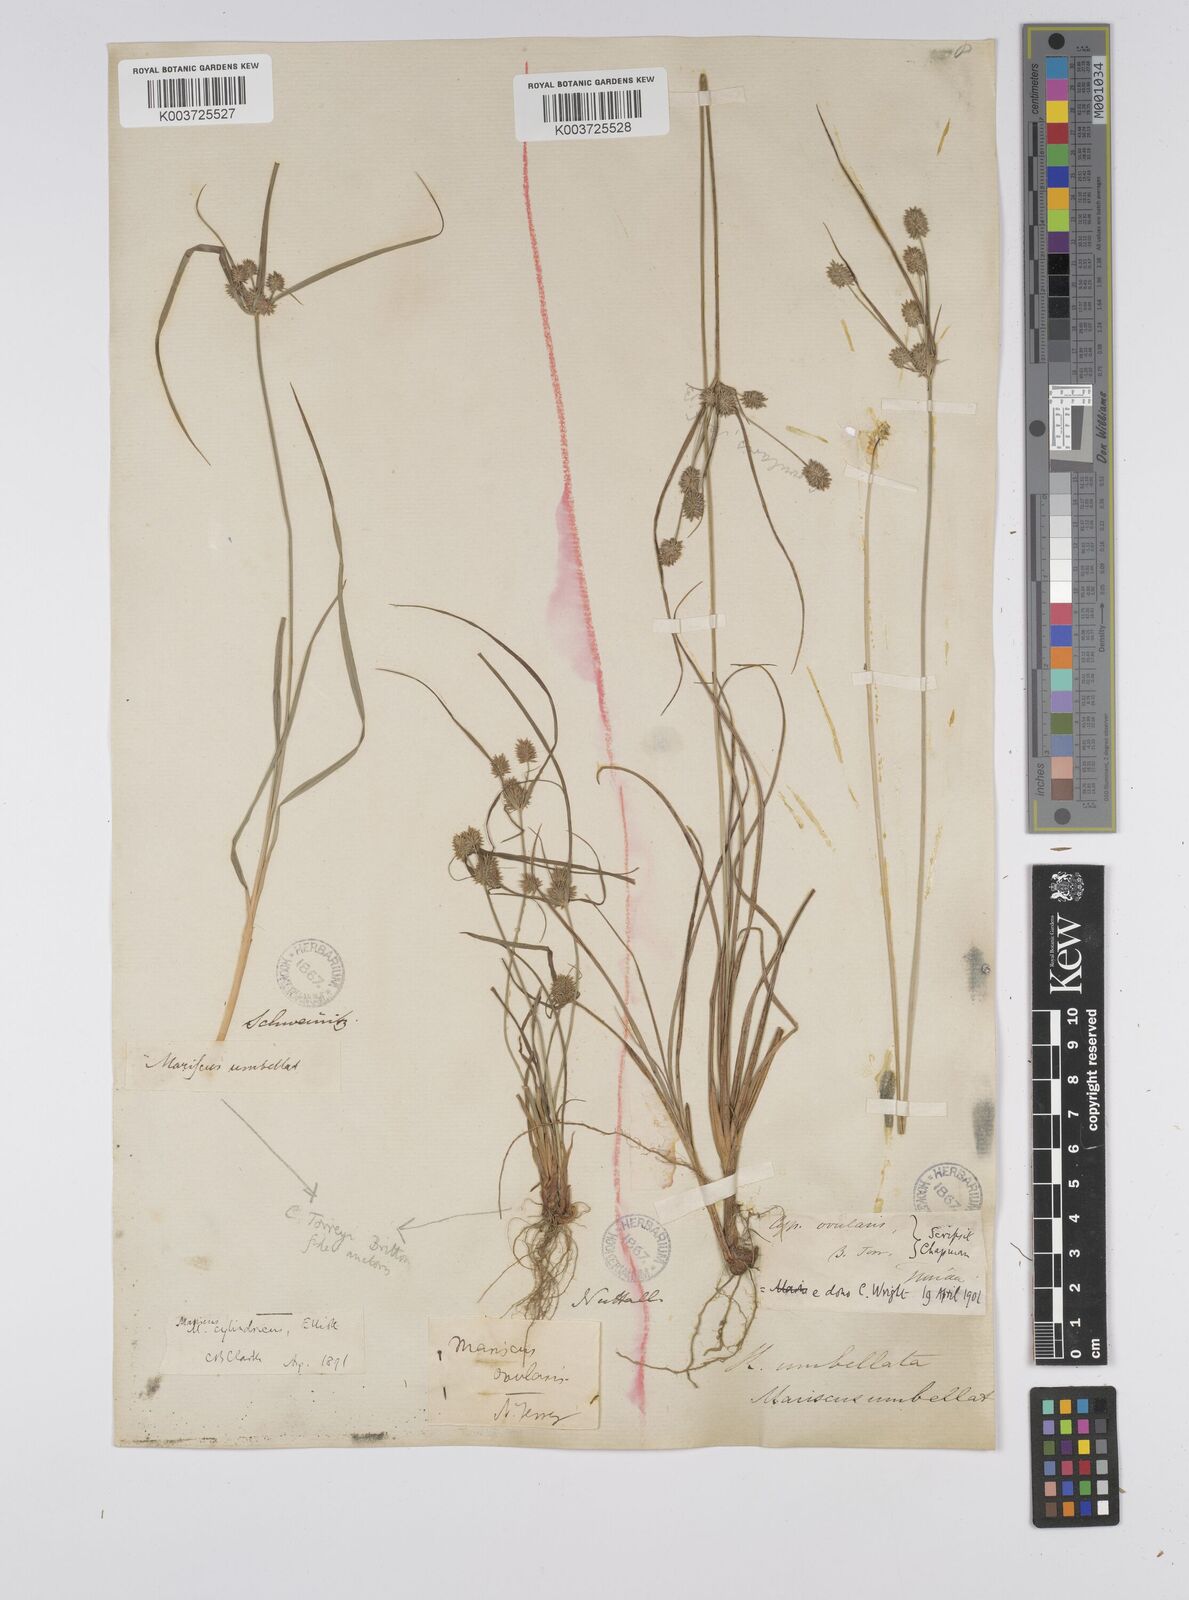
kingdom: Plantae
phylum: Tracheophyta
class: Liliopsida
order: Poales
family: Cyperaceae
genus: Cyperus
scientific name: Cyperus retrorsus
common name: Pinebarren flat sedge
